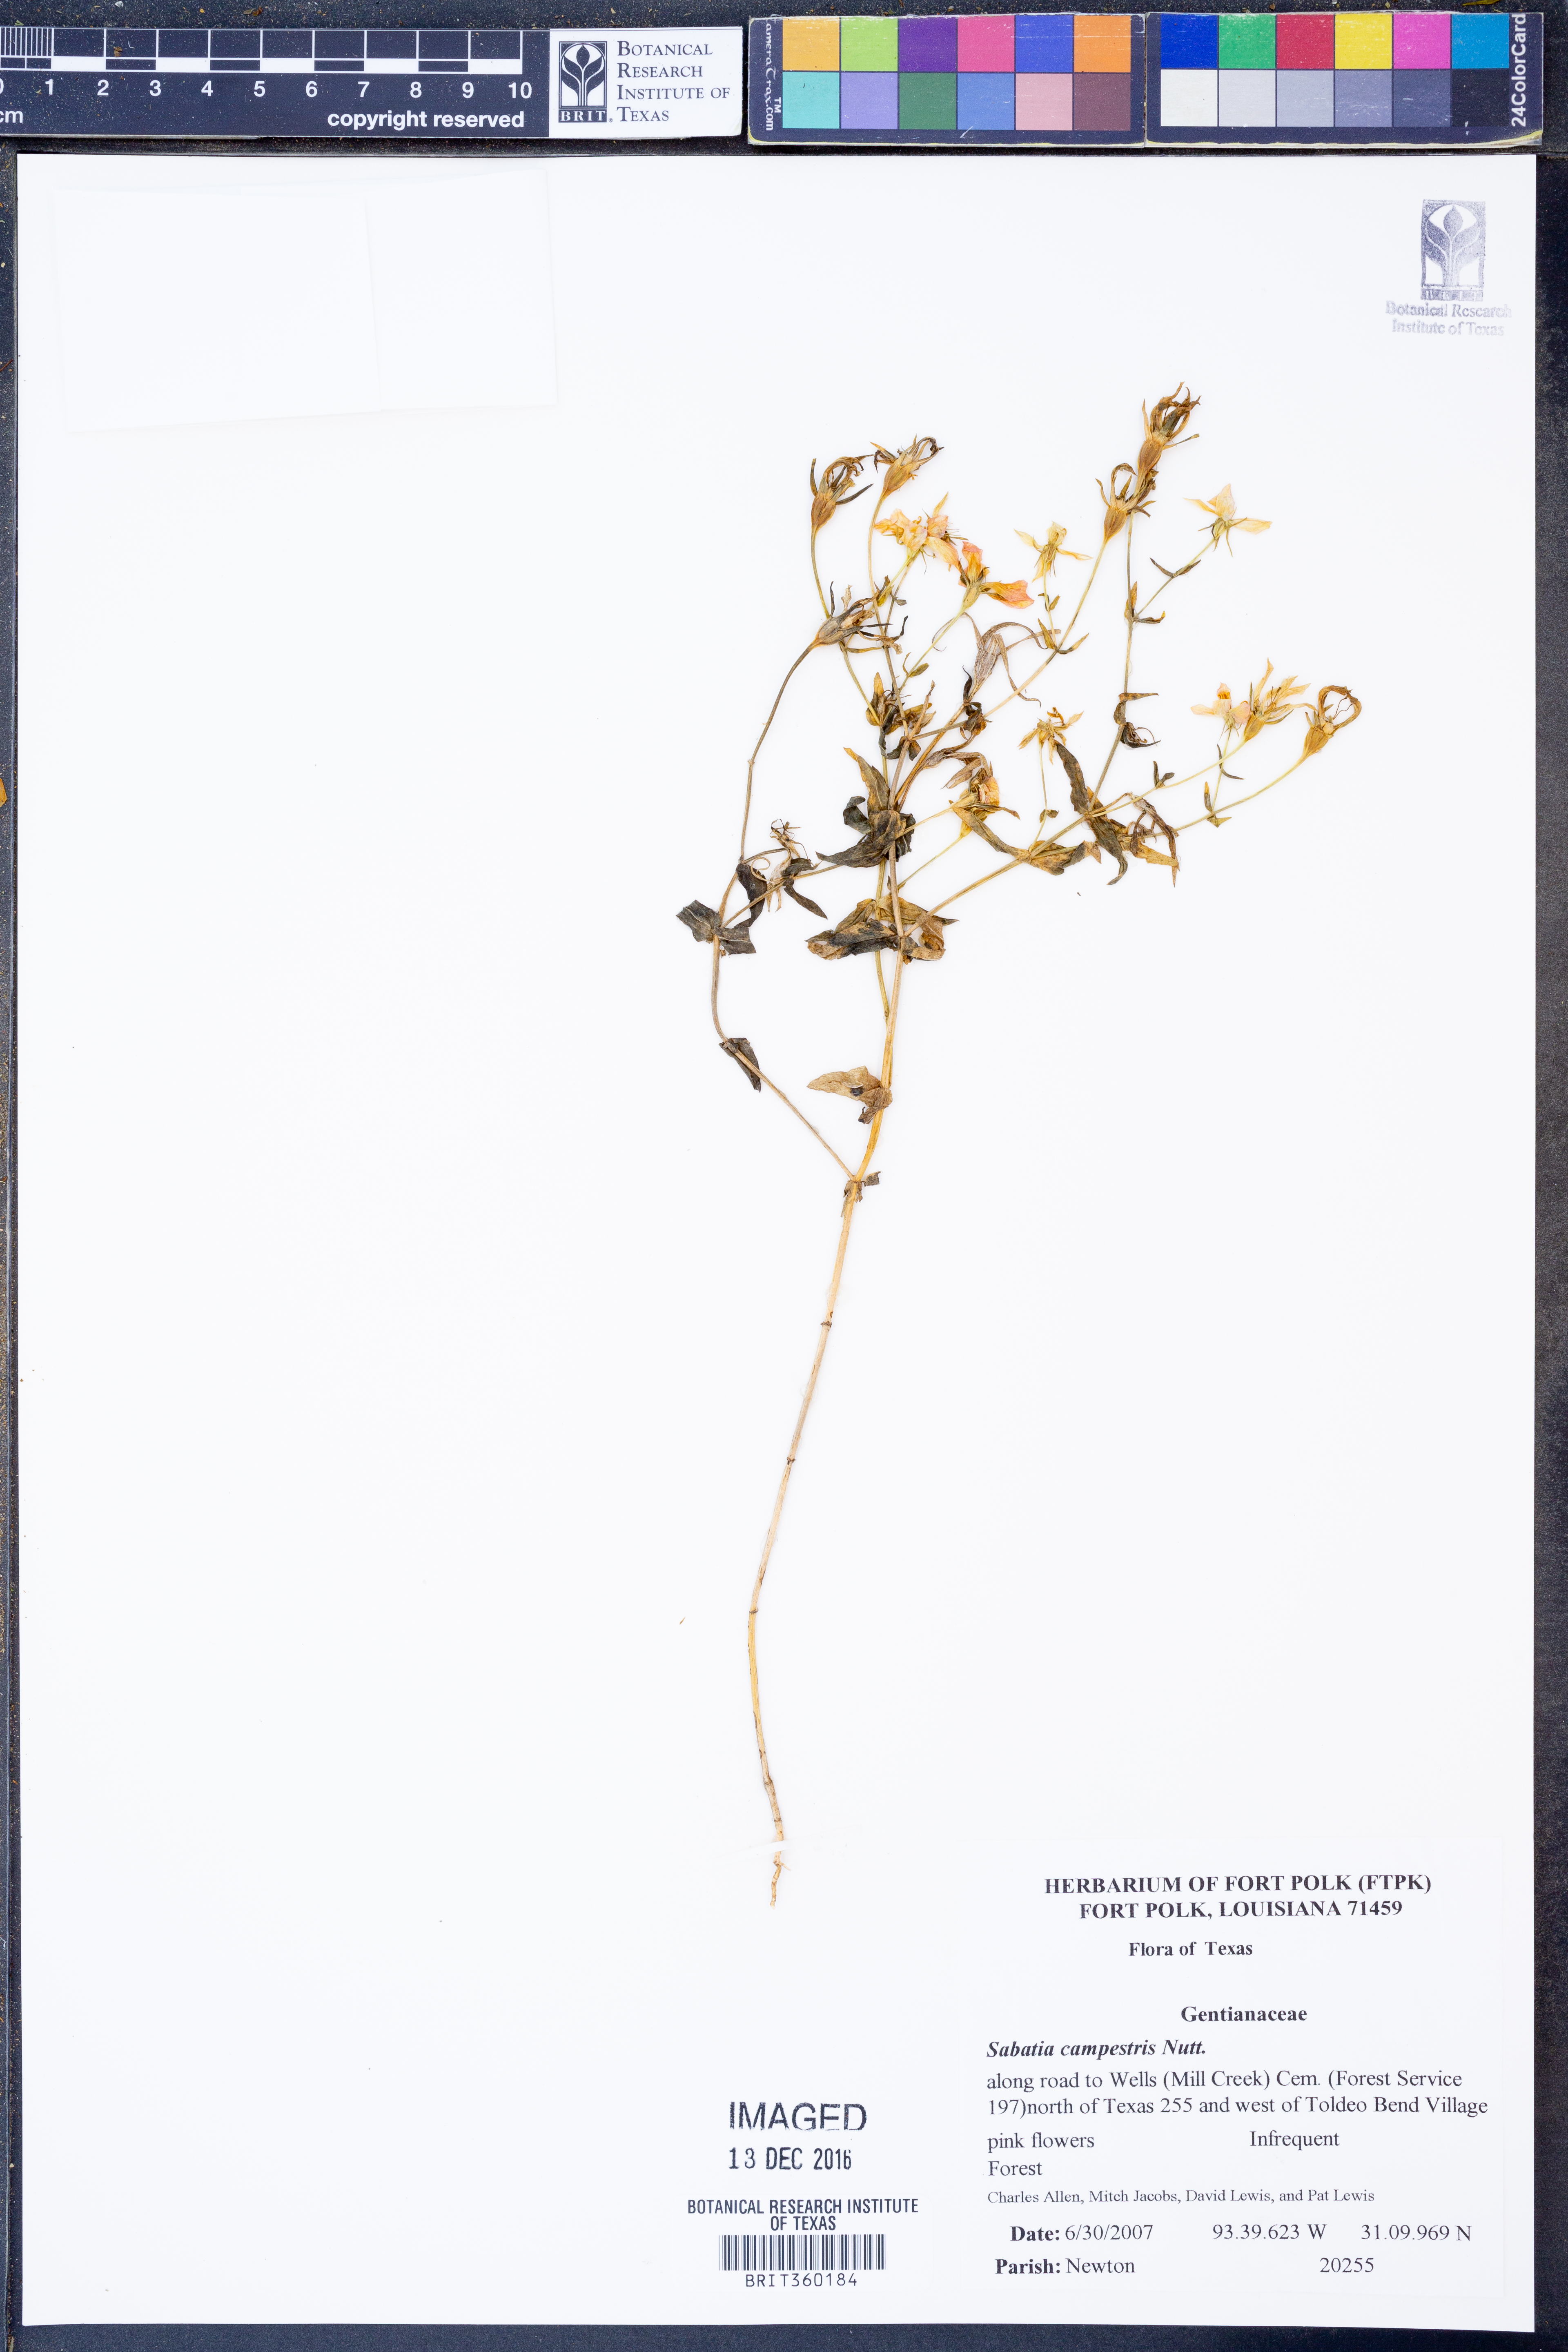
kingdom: Plantae
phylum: Tracheophyta
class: Magnoliopsida
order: Gentianales
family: Gentianaceae
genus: Sabatia
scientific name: Sabatia campestris
